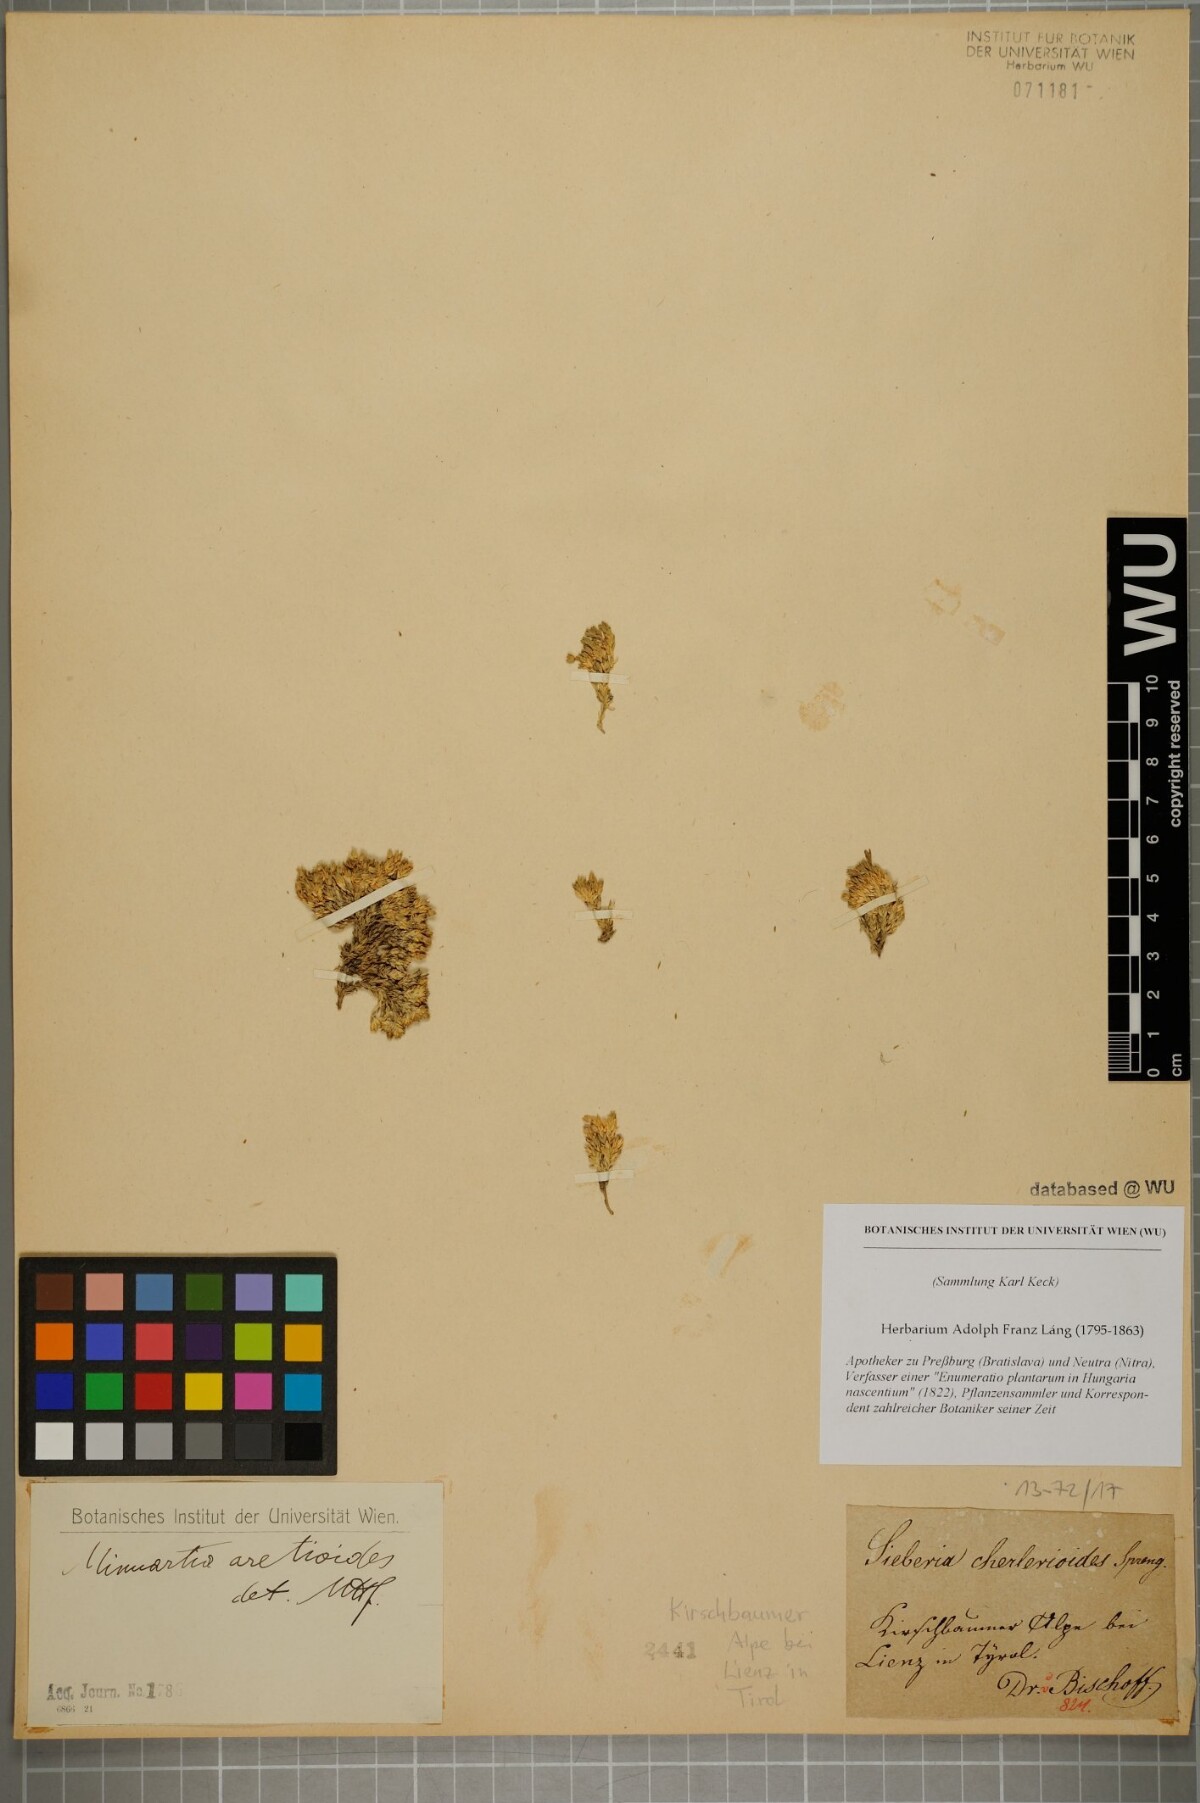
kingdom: Plantae
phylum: Tracheophyta
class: Magnoliopsida
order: Caryophyllales
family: Caryophyllaceae
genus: Facchinia
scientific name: Facchinia cherlerioides
